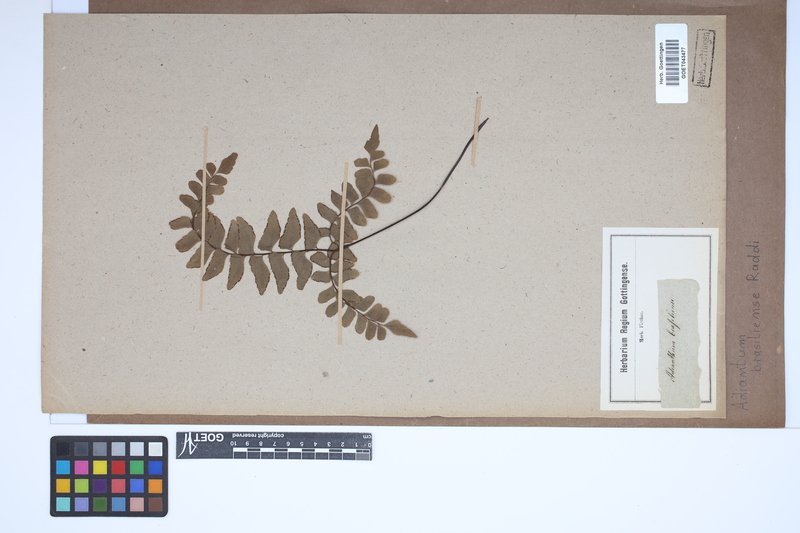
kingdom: Plantae
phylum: Tracheophyta
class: Polypodiopsida
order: Polypodiales
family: Pteridaceae
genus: Adiantum
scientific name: Adiantum abscissum
